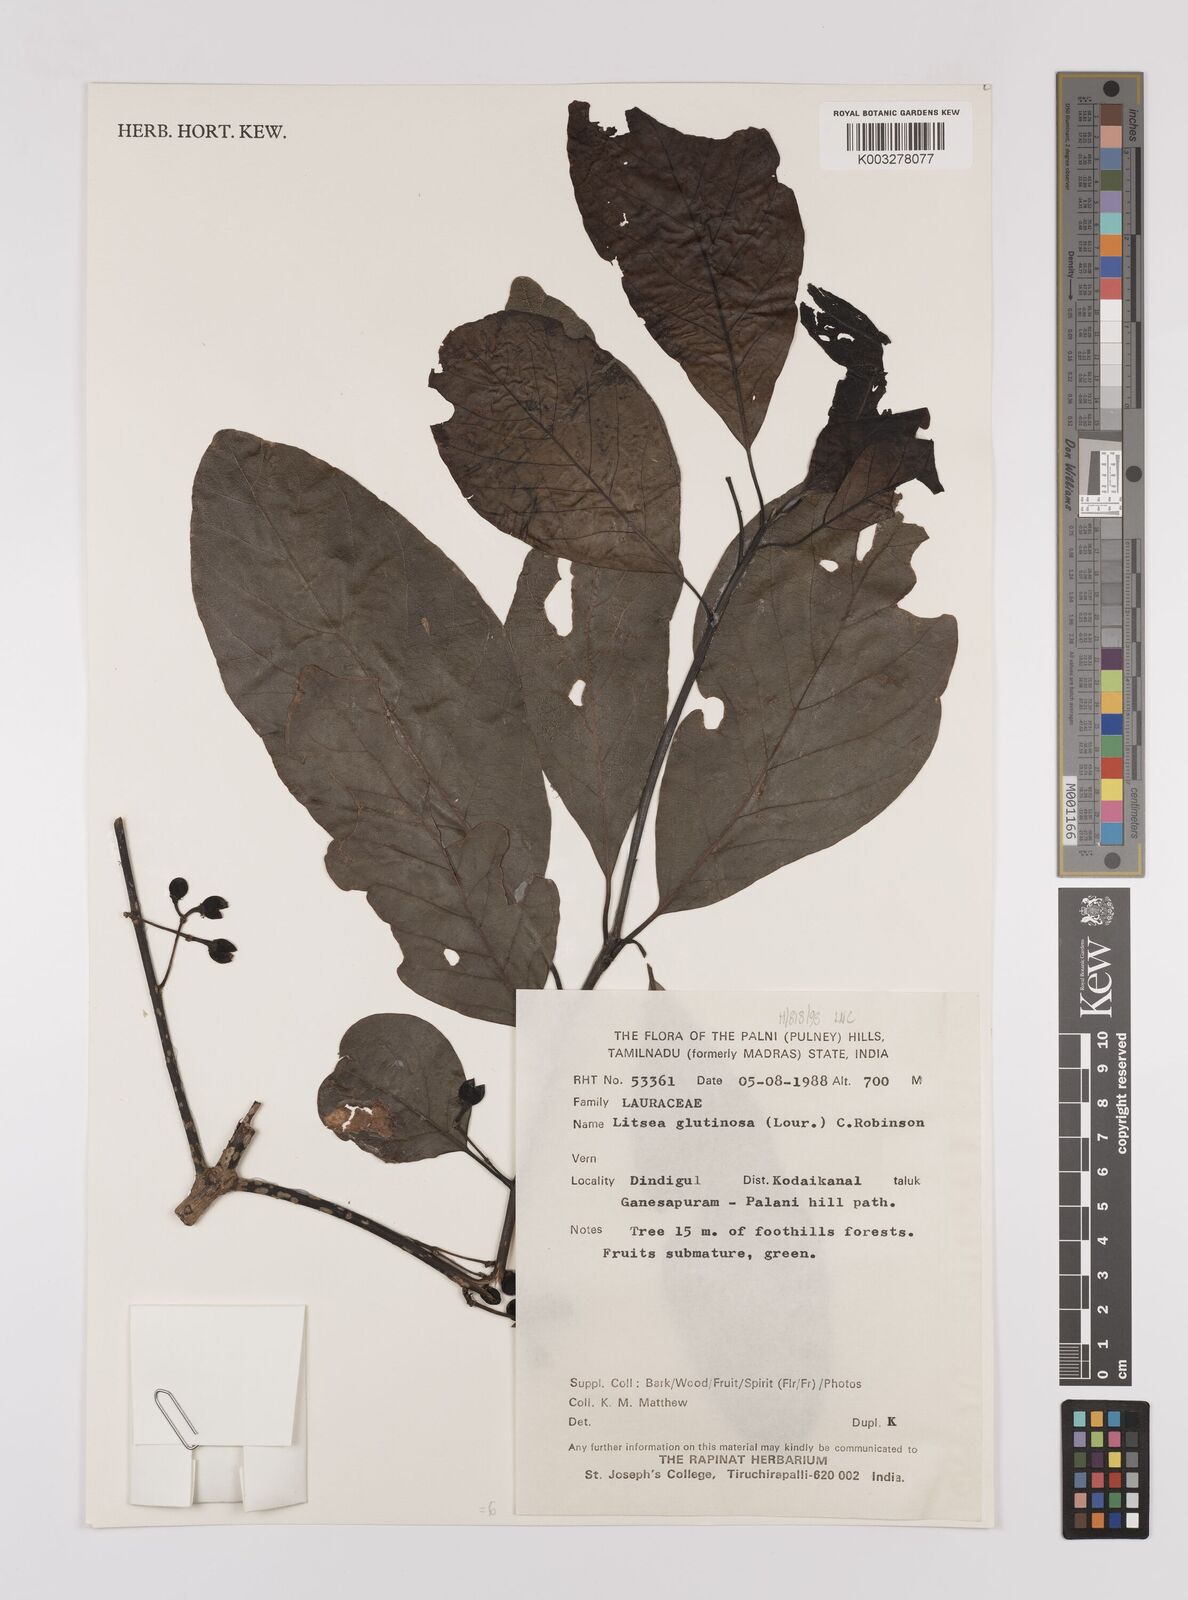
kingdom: Plantae
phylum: Tracheophyta
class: Magnoliopsida
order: Laurales
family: Lauraceae
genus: Litsea
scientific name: Litsea glutinosa
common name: Indian-laurel
